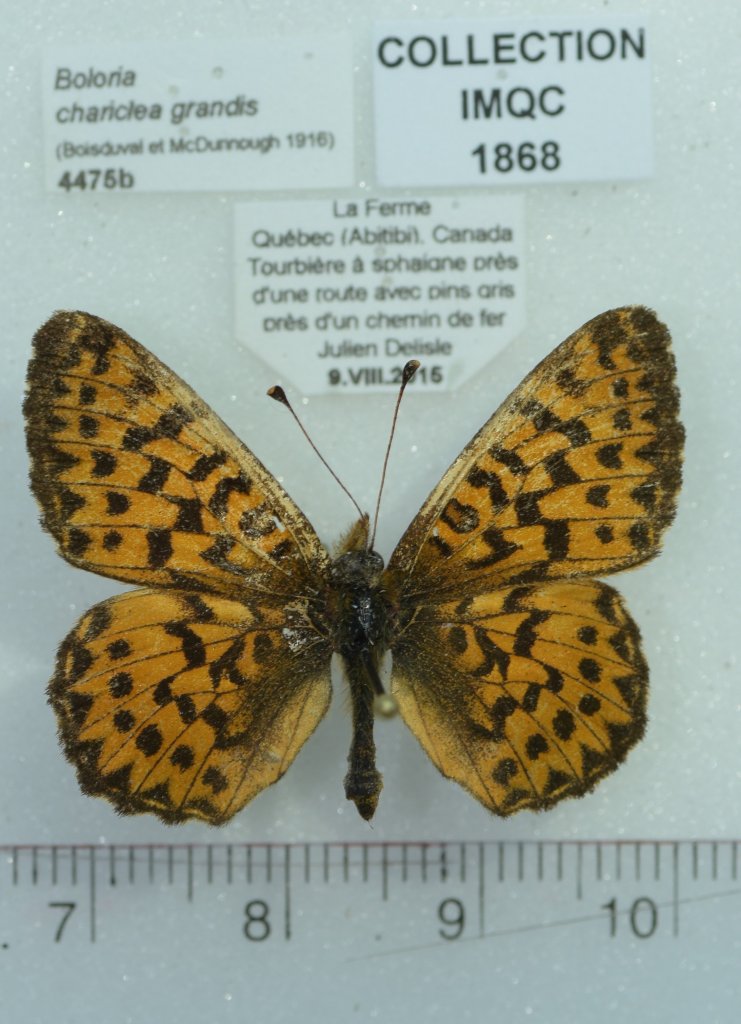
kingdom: Animalia
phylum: Arthropoda
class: Insecta
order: Lepidoptera
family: Nymphalidae
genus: Boloria
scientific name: Boloria chariclea
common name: Arctic Fritillary
